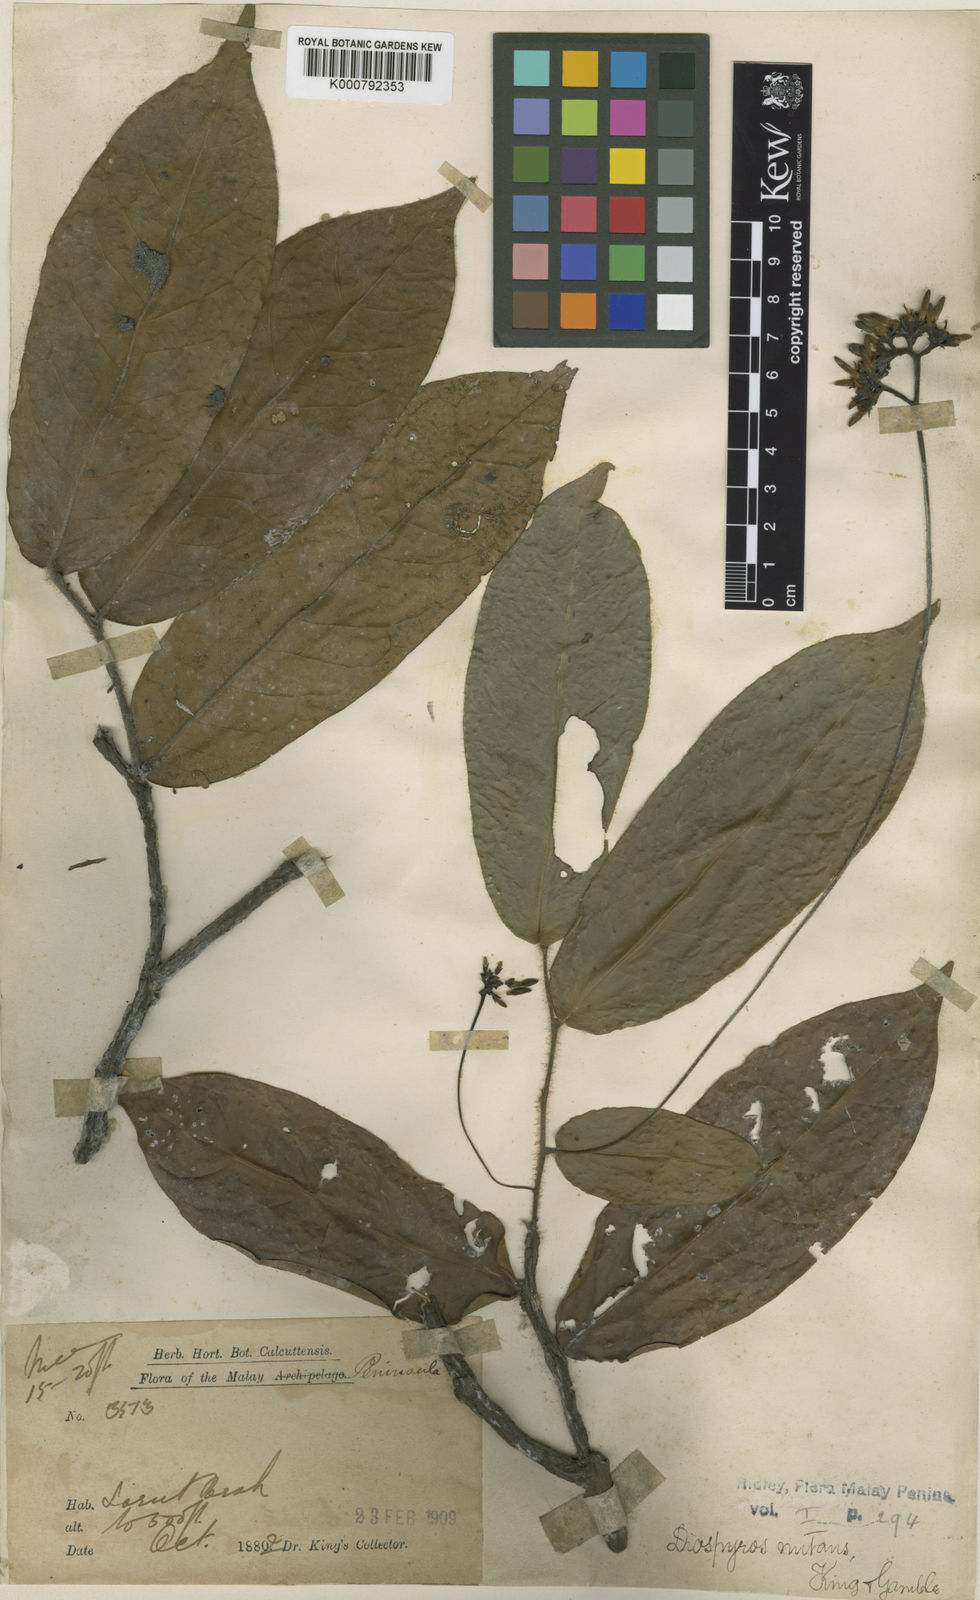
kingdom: Plantae
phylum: Tracheophyta
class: Magnoliopsida
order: Ericales
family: Ebenaceae
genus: Diospyros
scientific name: Diospyros nutans
